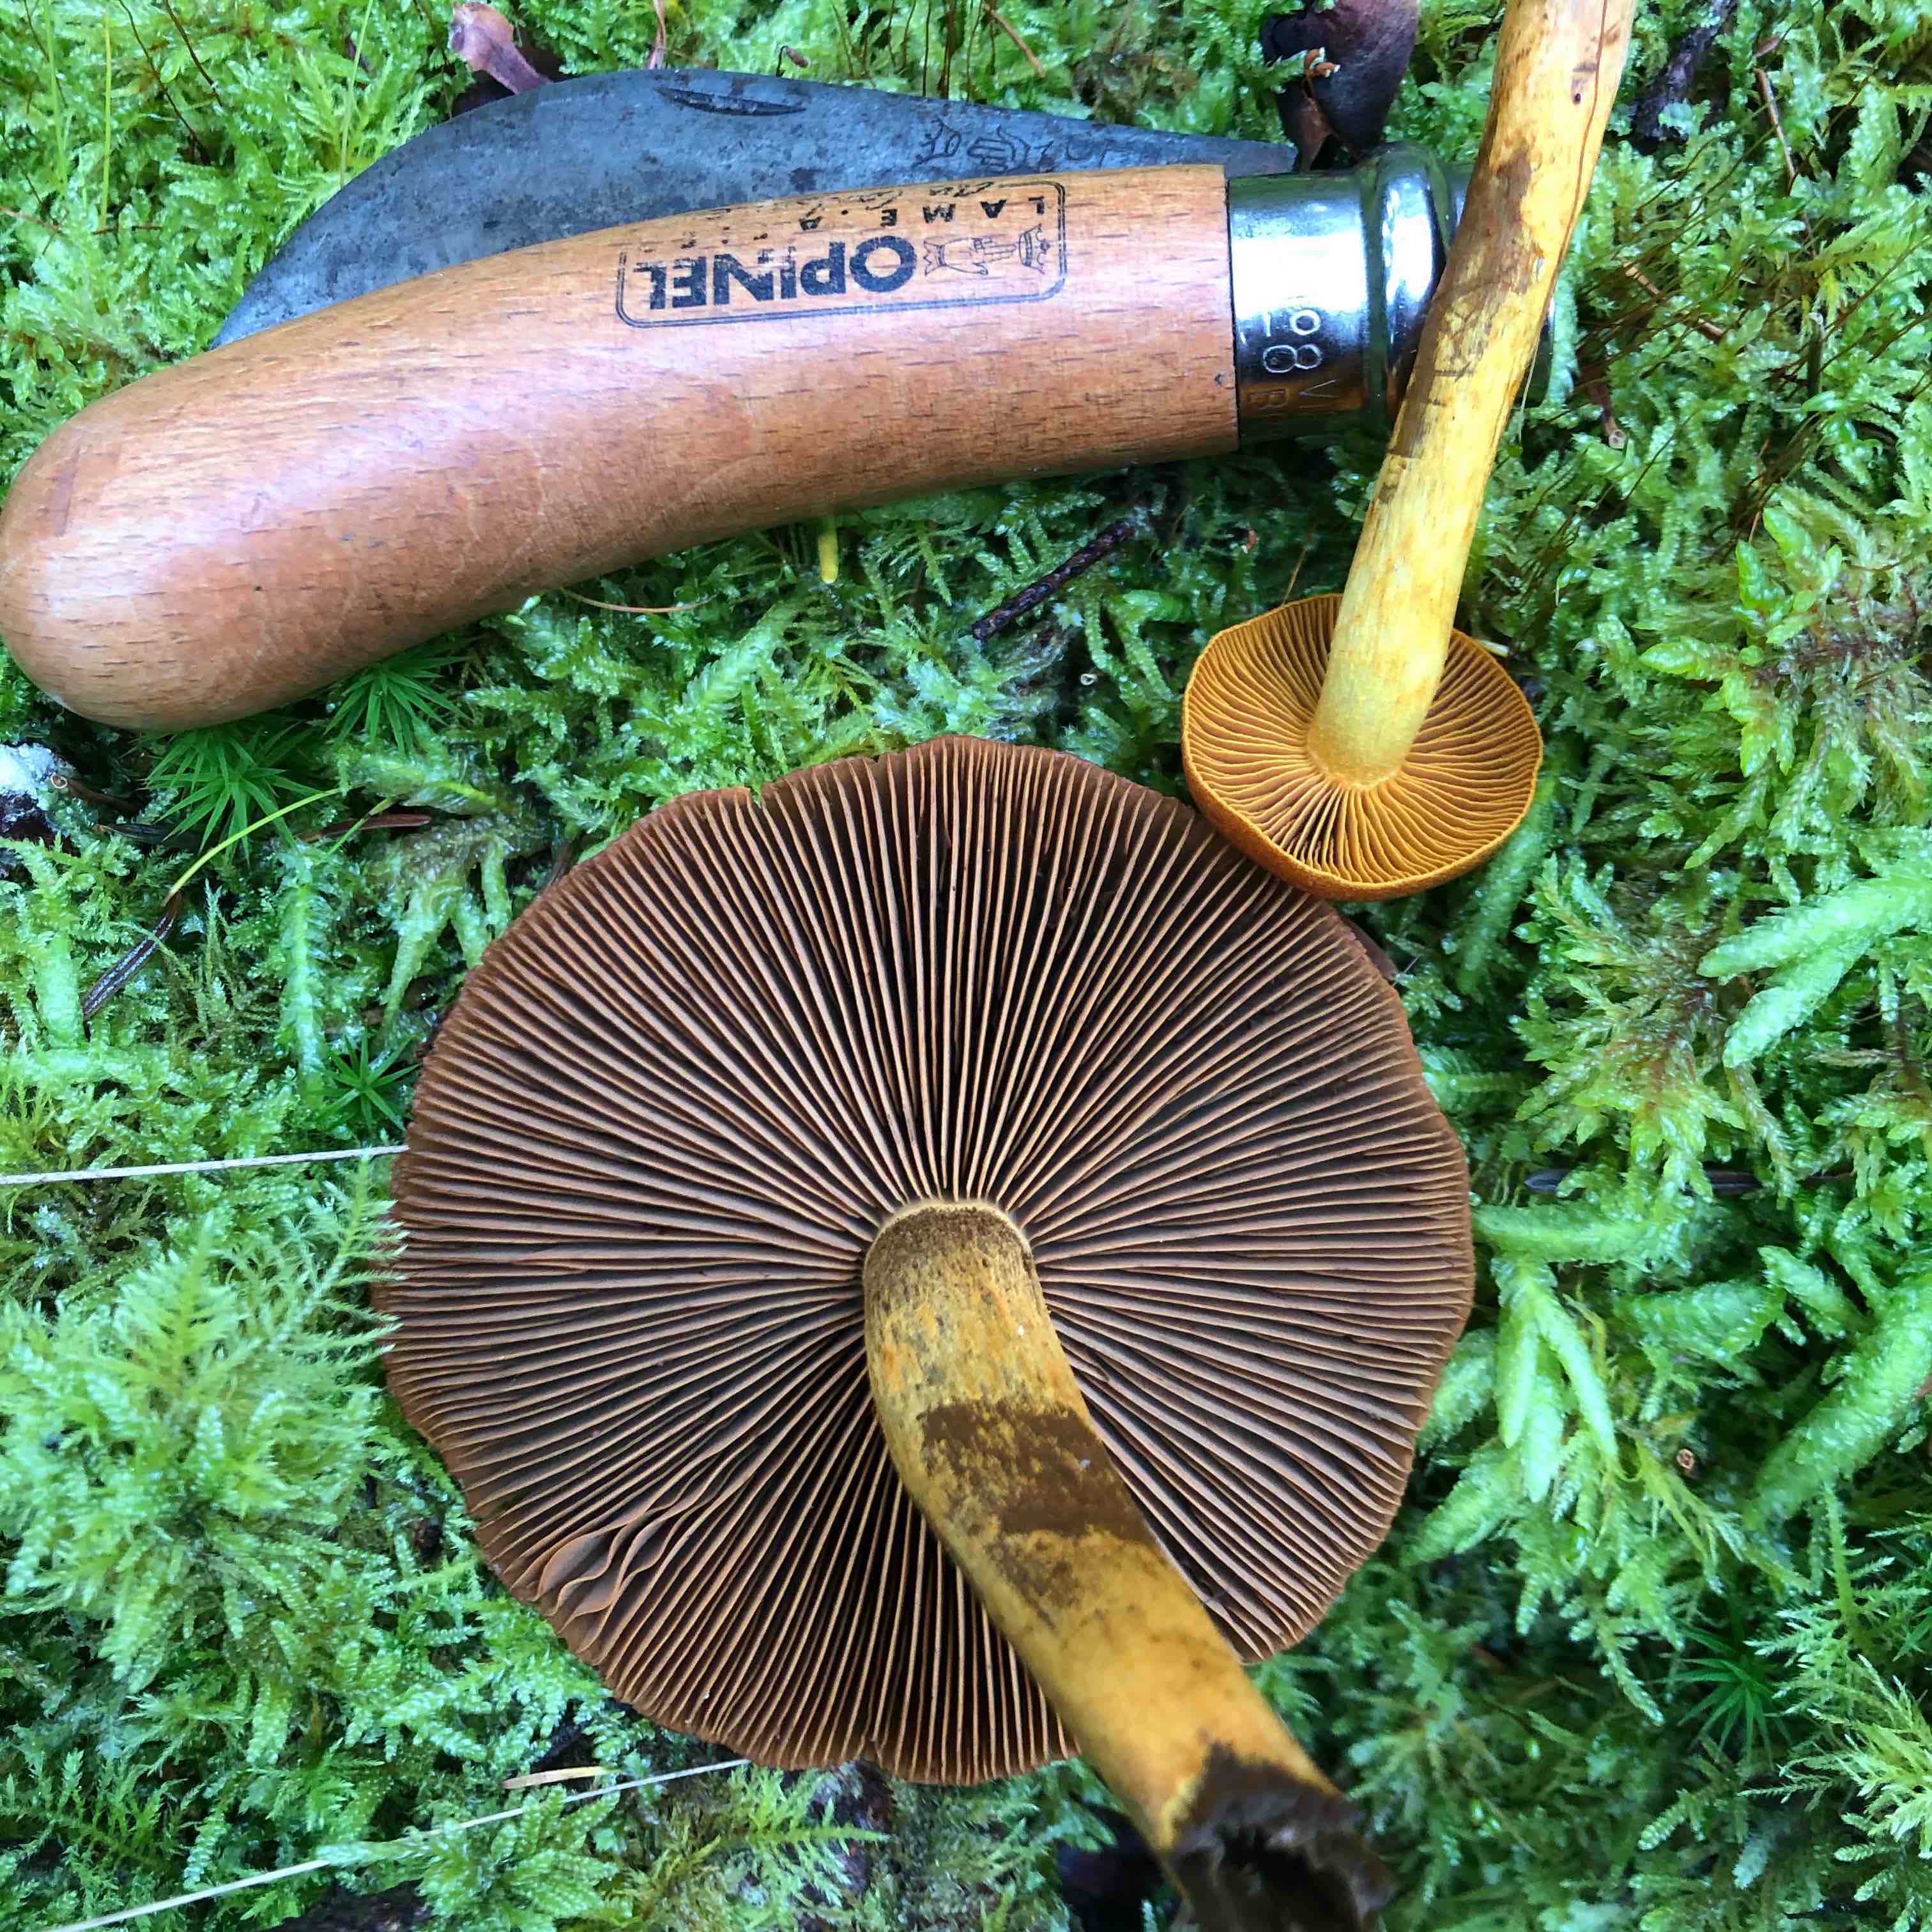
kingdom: Fungi
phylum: Basidiomycota
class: Agaricomycetes
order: Agaricales
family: Cortinariaceae
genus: Cortinarius
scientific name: Cortinarius malicorius
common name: grønkødet slørhat
